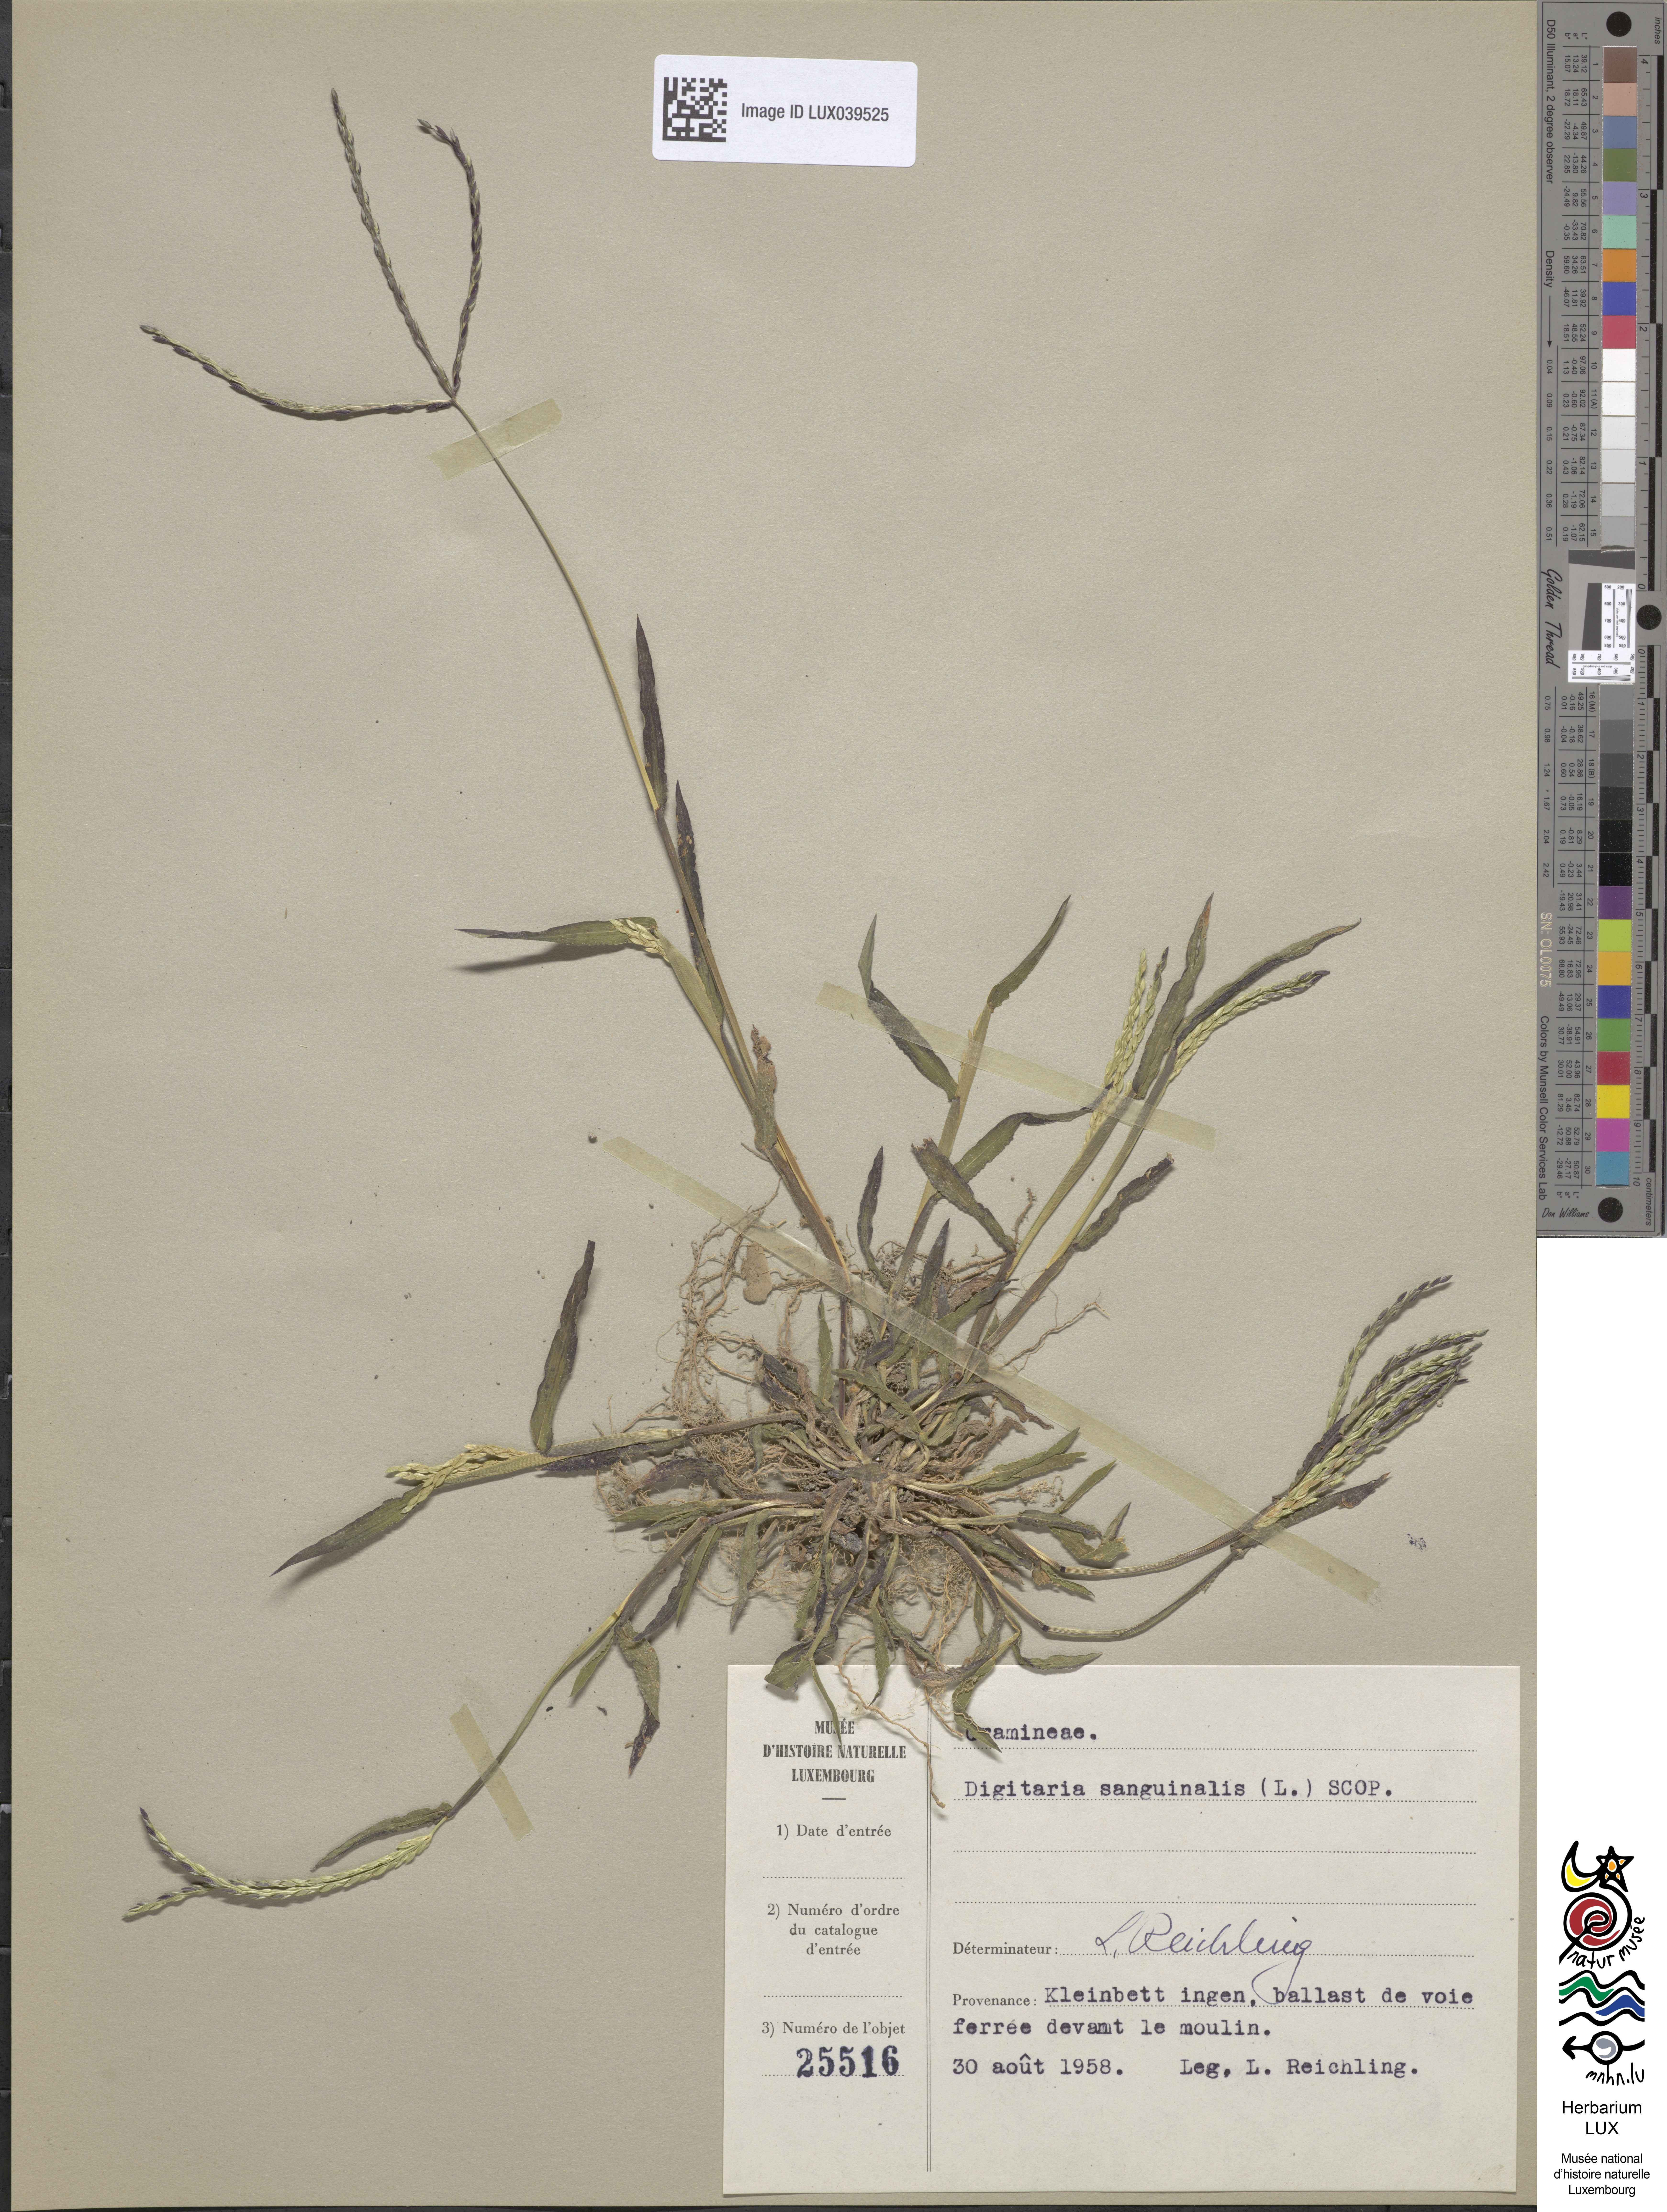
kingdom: Plantae
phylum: Tracheophyta
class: Liliopsida
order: Poales
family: Poaceae
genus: Digitaria
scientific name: Digitaria sanguinalis
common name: Hairy crabgrass
